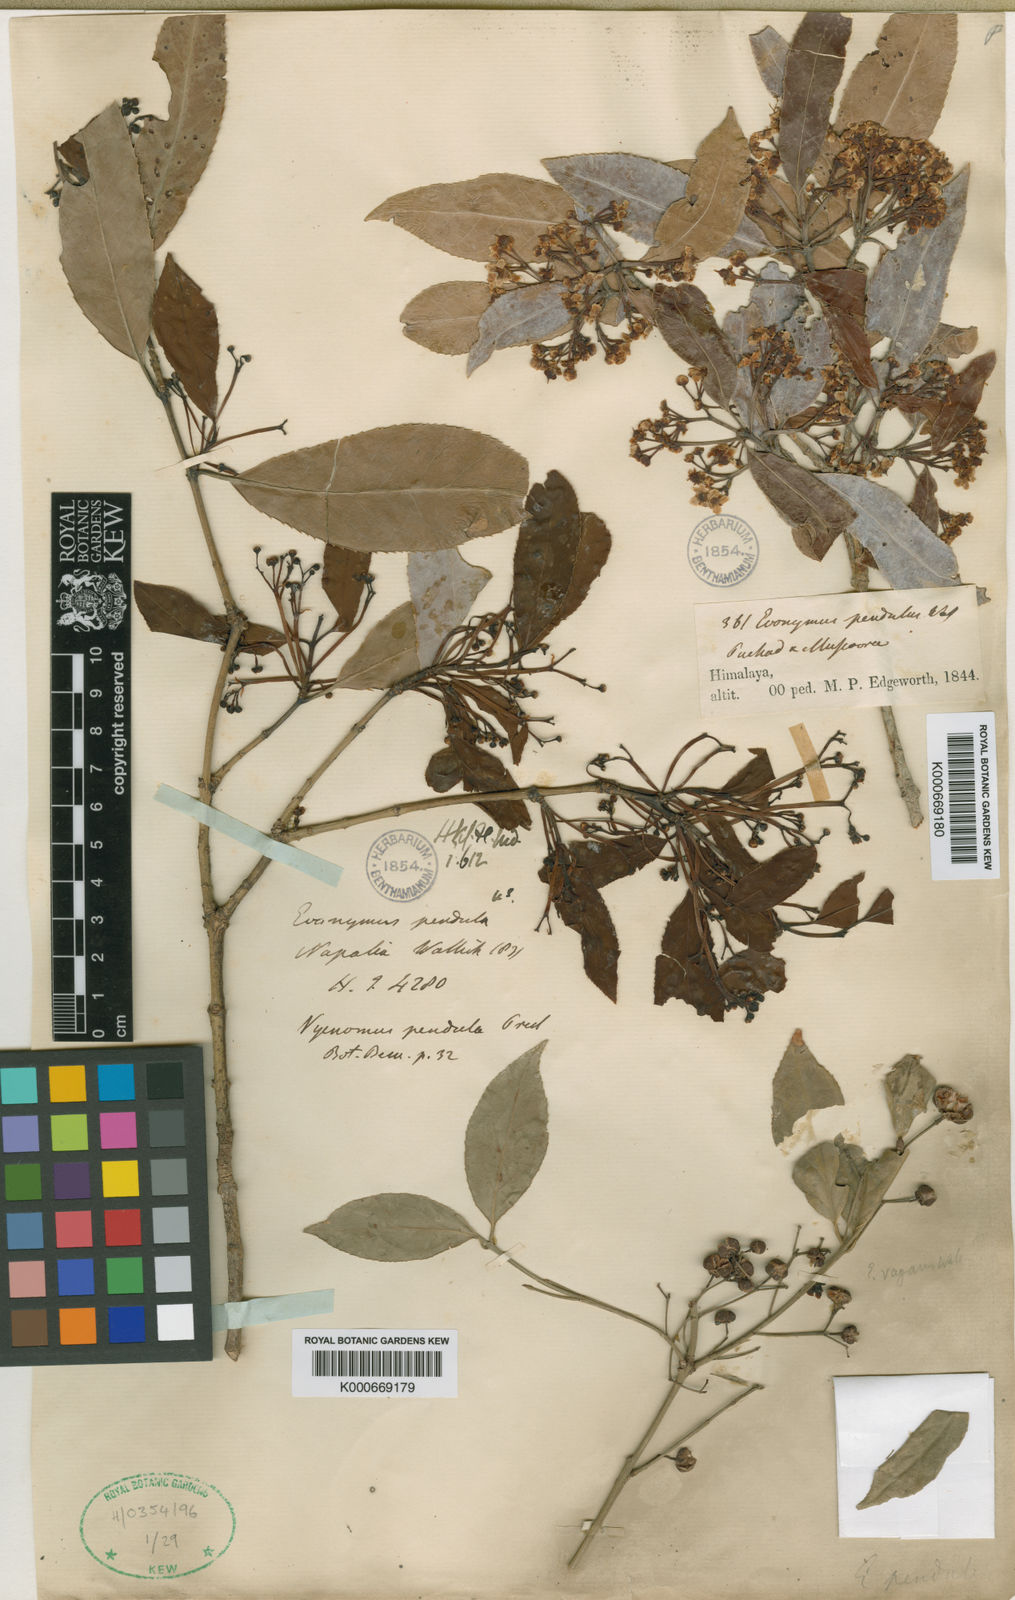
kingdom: Plantae
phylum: Tracheophyta
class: Magnoliopsida
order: Celastrales
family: Celastraceae
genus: Euonymus
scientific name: Euonymus lucidus
